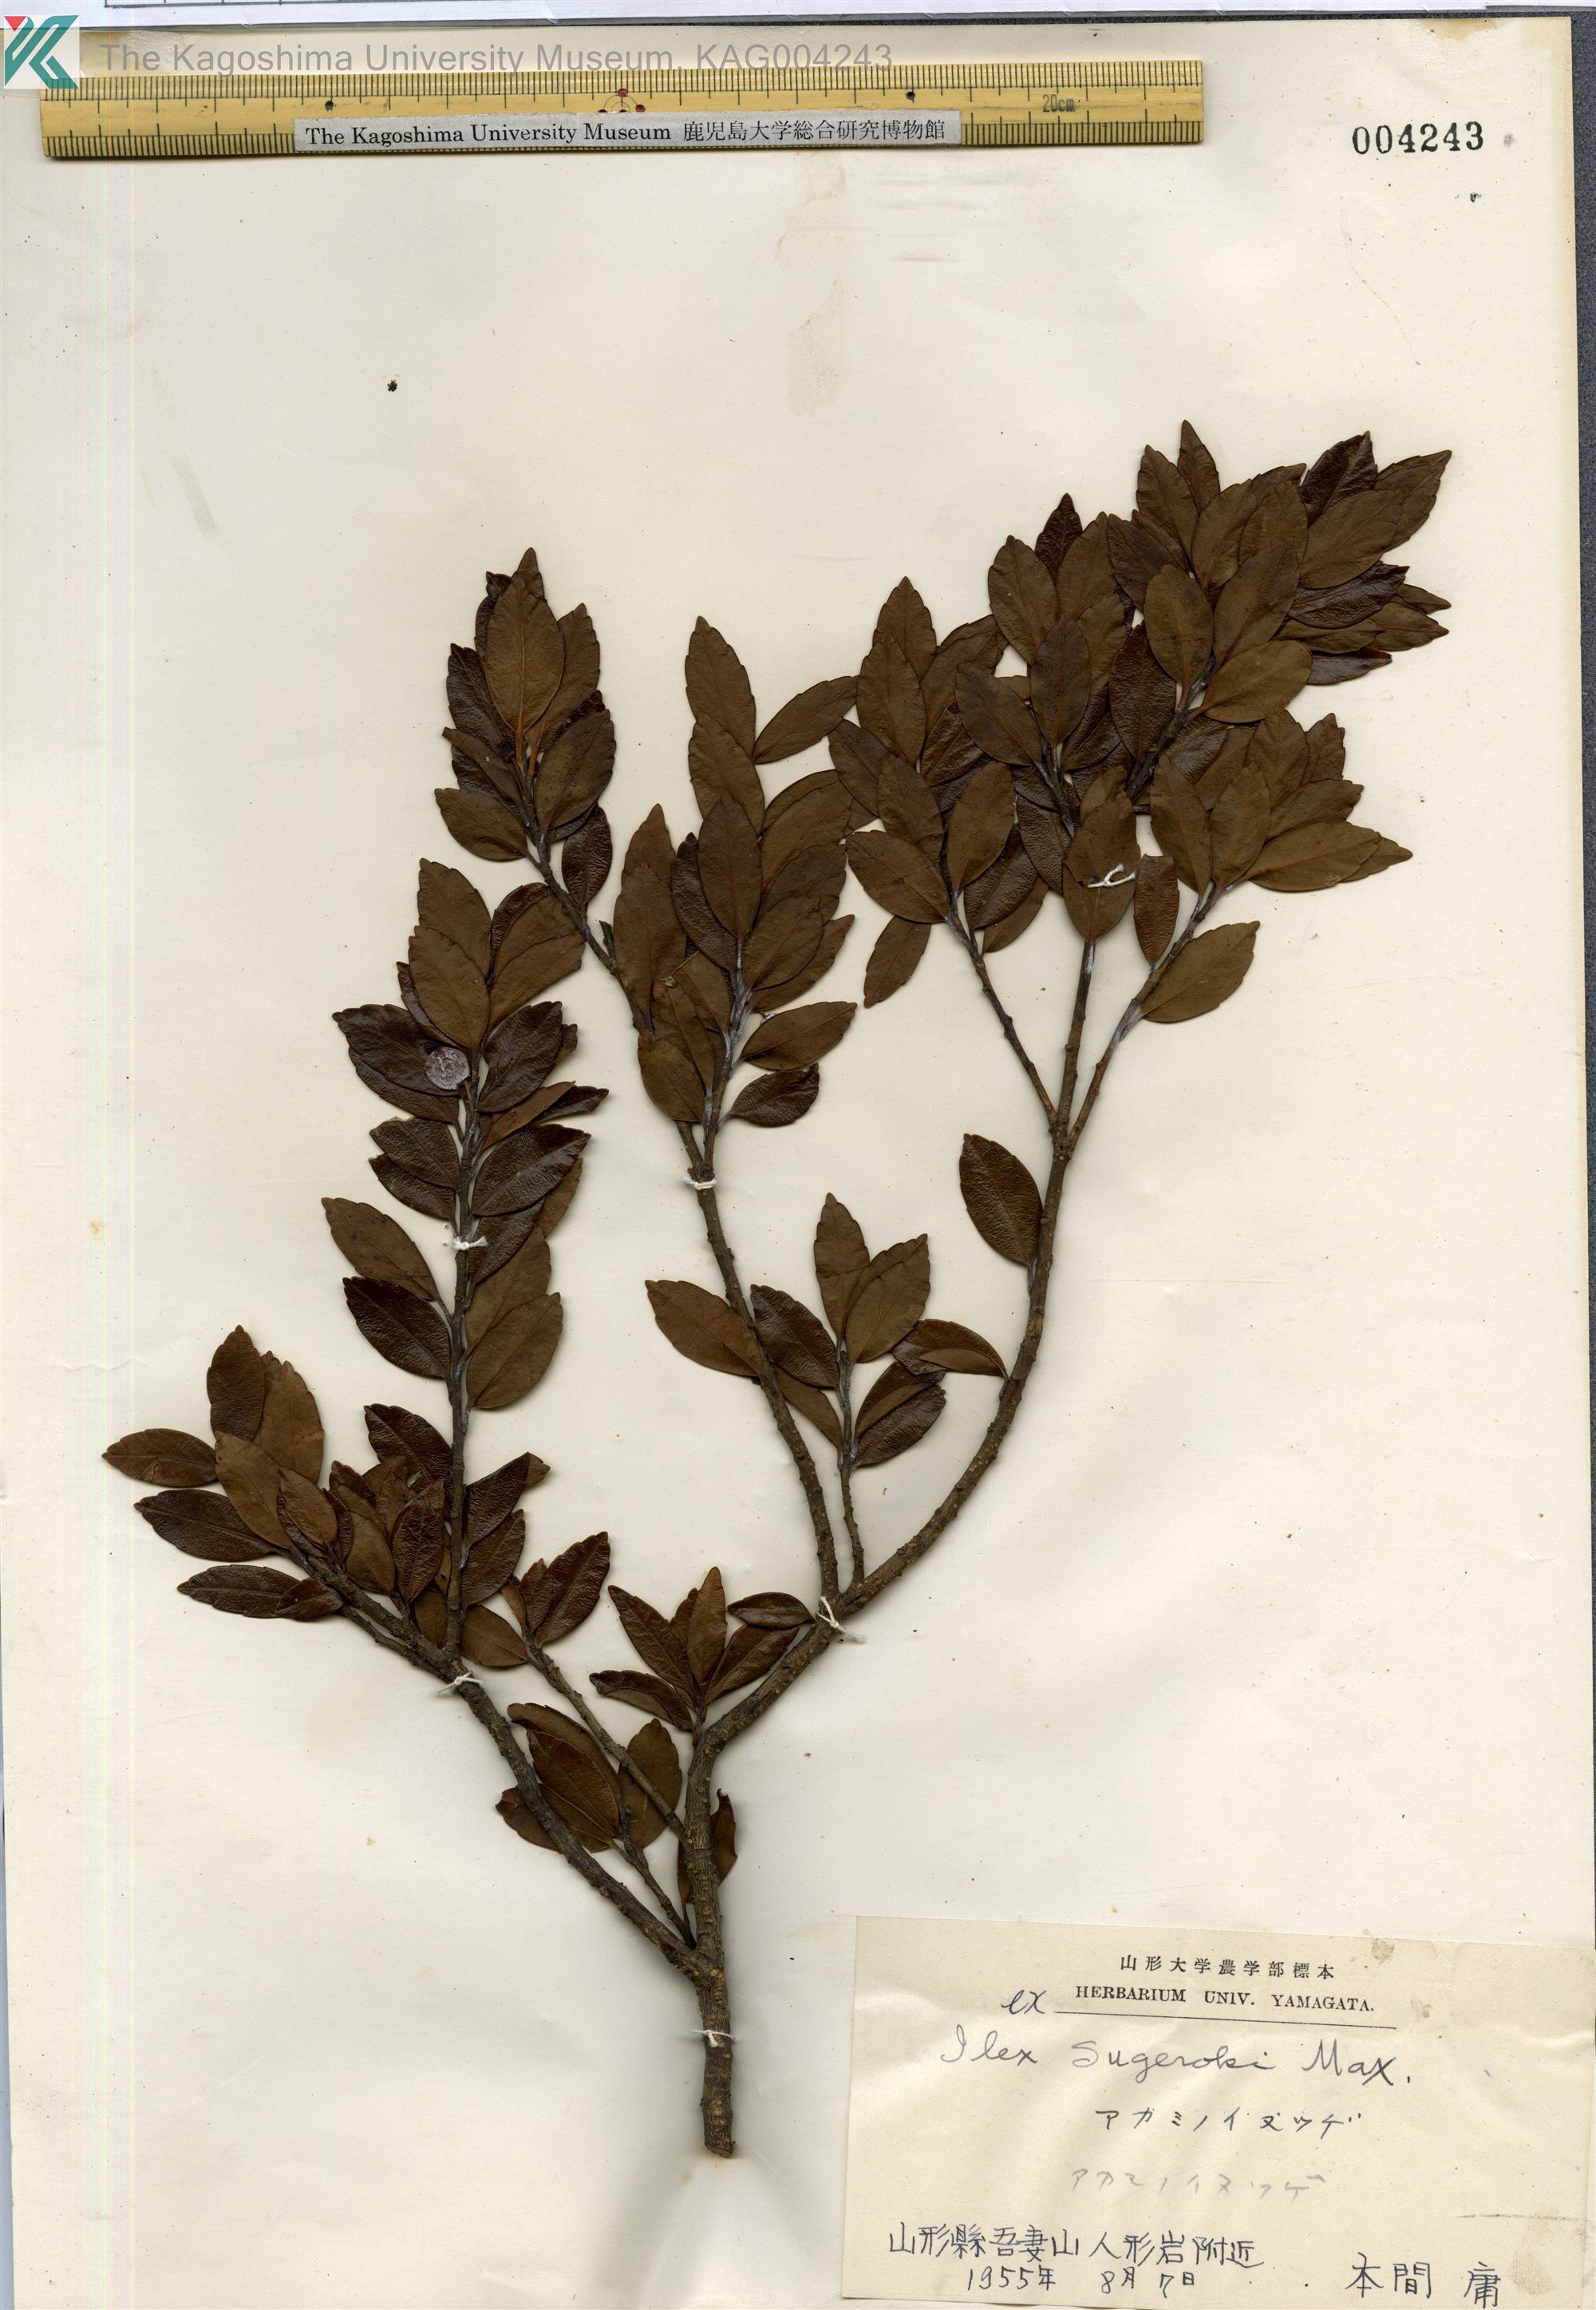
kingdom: Plantae
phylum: Tracheophyta
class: Magnoliopsida
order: Aquifoliales
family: Aquifoliaceae
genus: Ilex
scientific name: Ilex sugerokii
